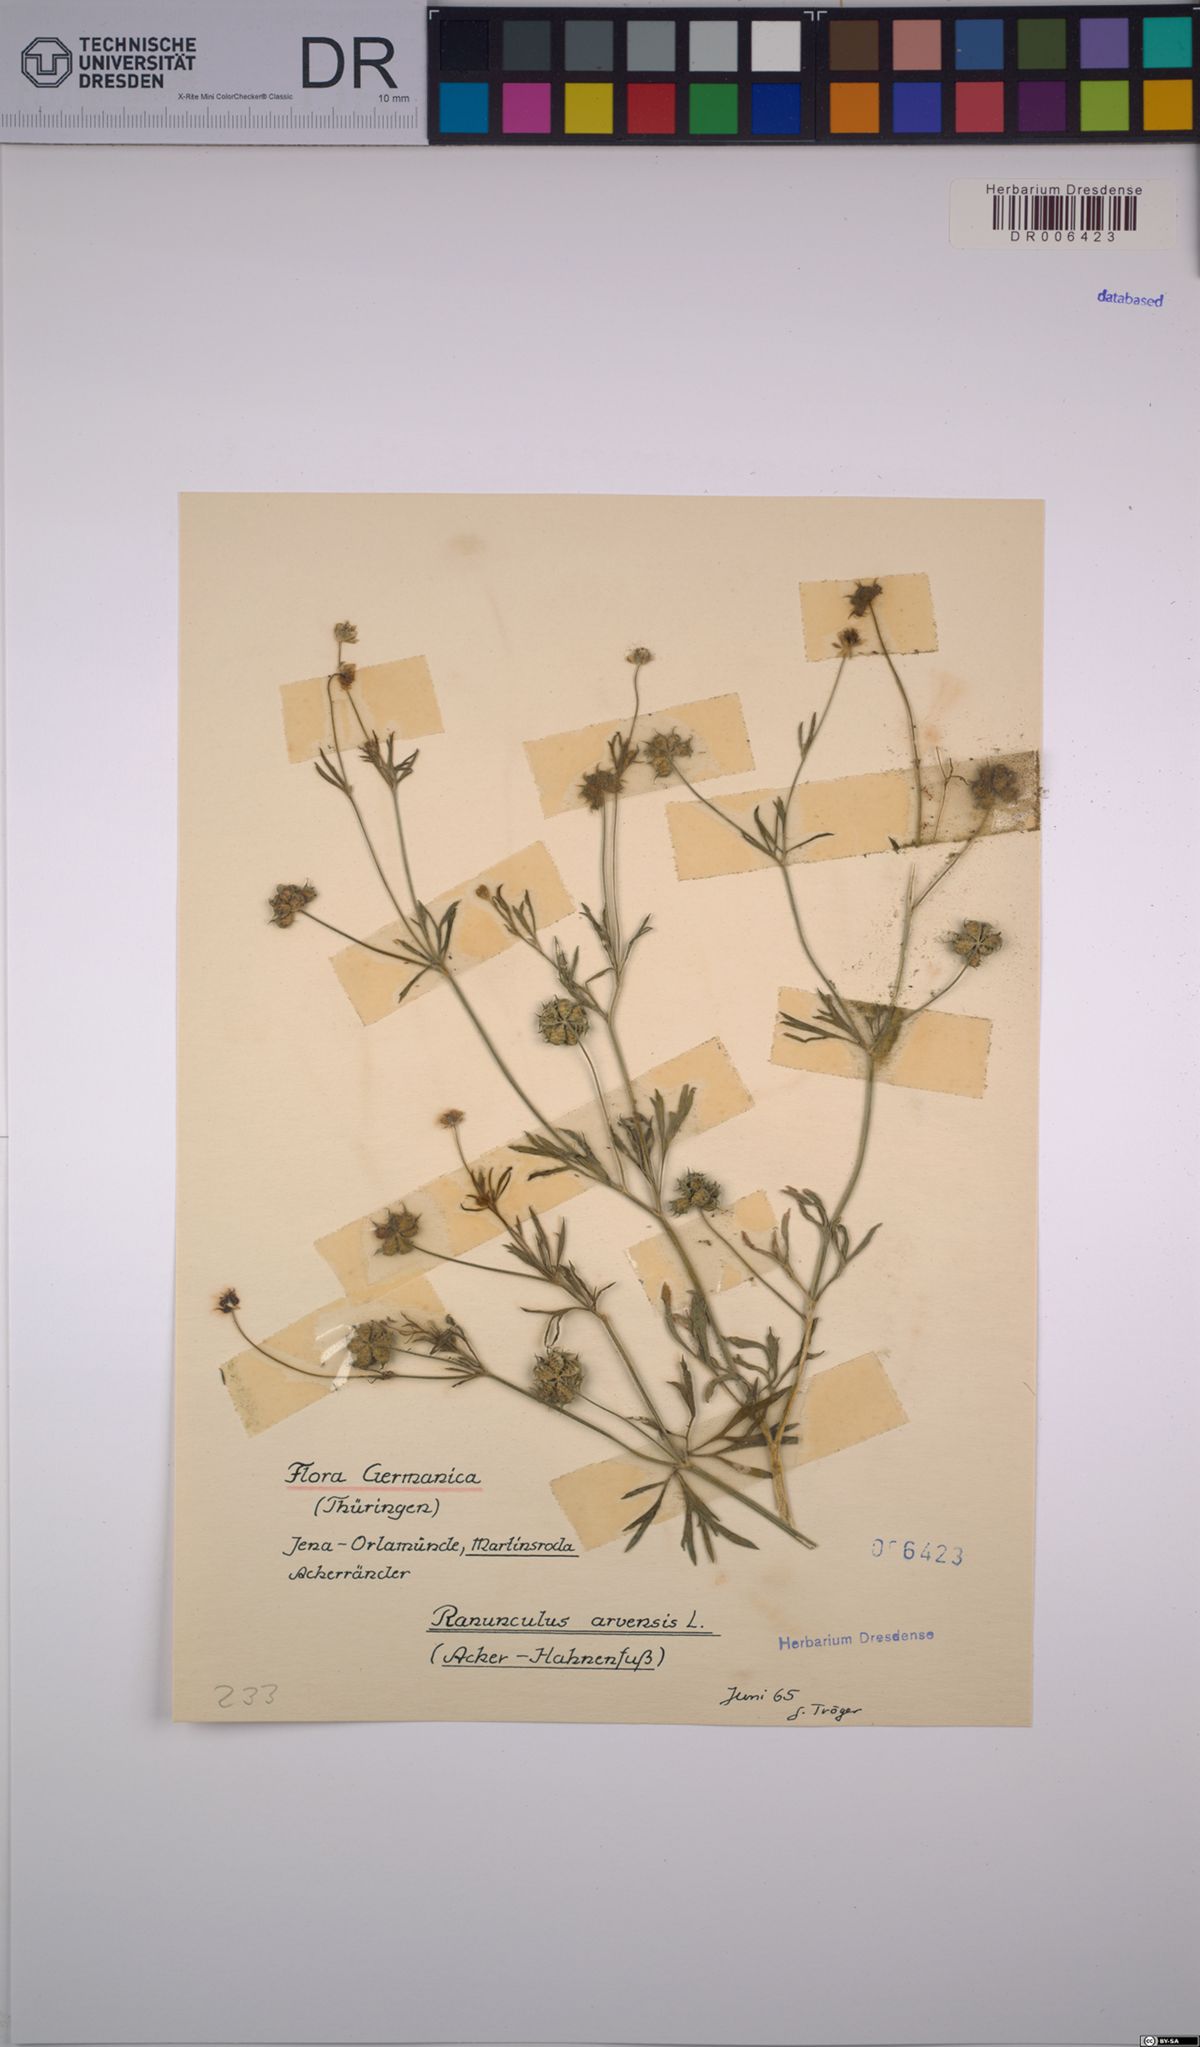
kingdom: Plantae
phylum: Tracheophyta
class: Magnoliopsida
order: Ranunculales
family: Ranunculaceae
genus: Ranunculus
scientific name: Ranunculus arvensis
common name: Corn buttercup
